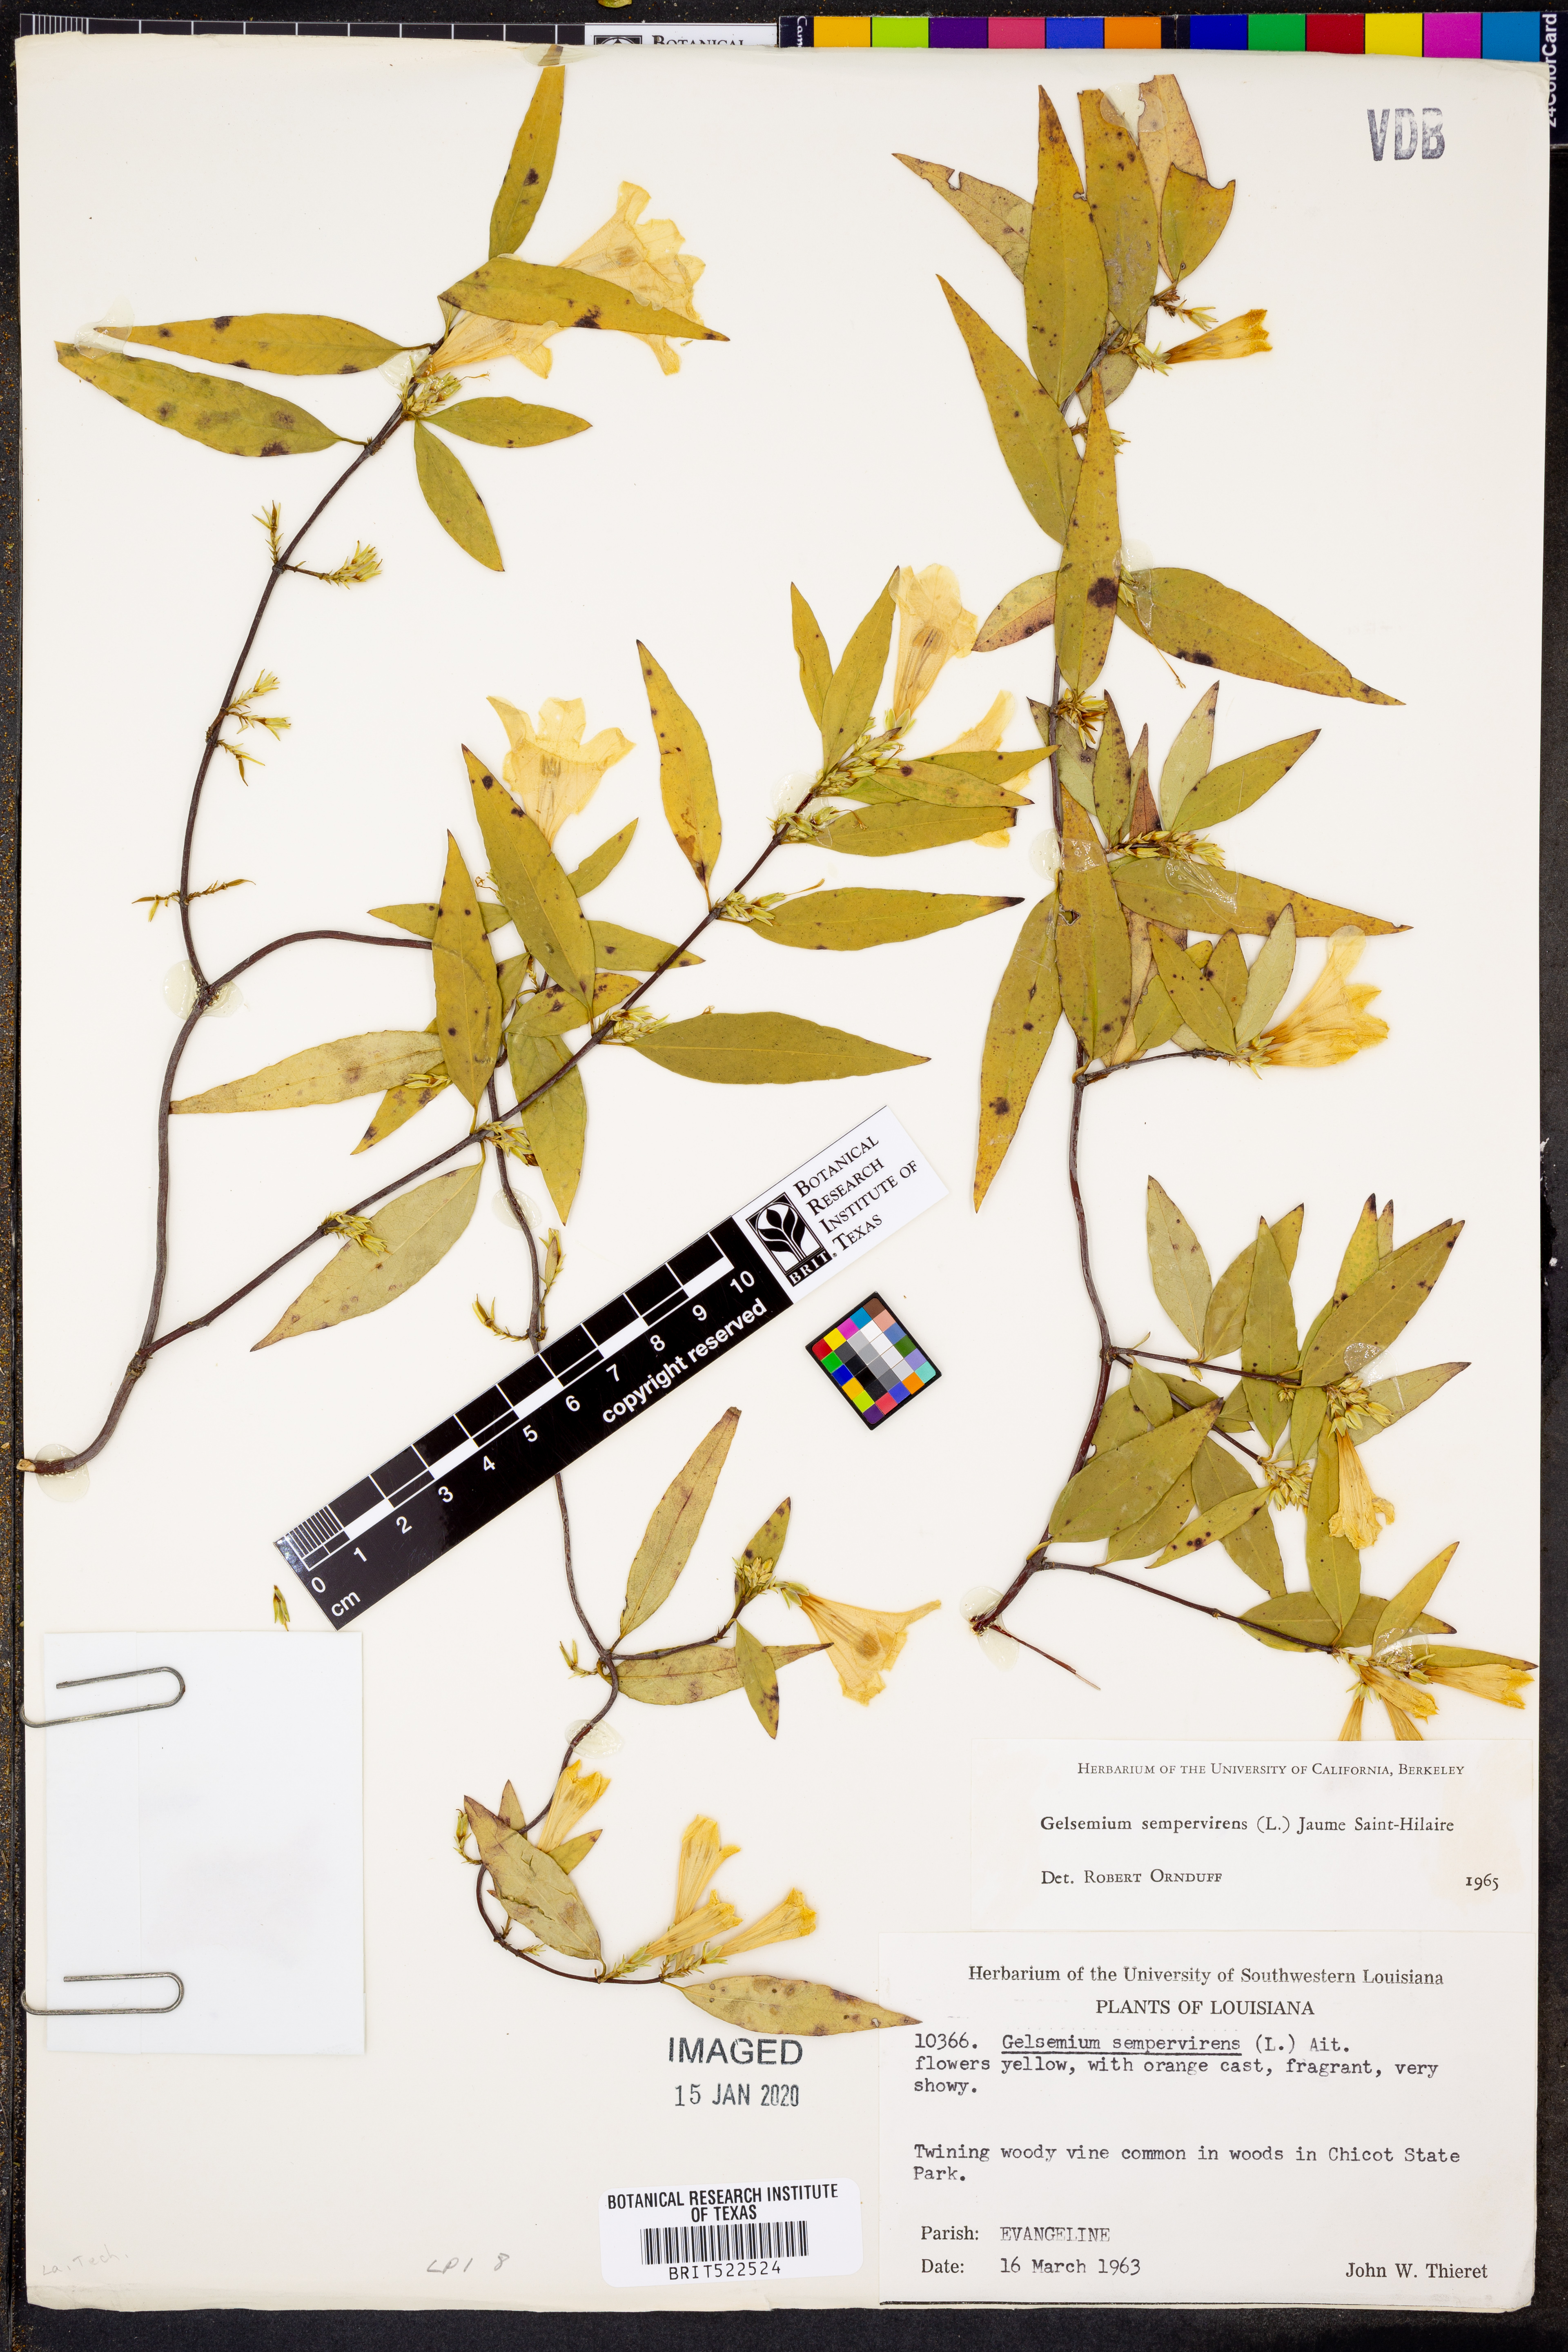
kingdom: Plantae
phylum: Tracheophyta
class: Magnoliopsida
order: Gentianales
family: Gelsemiaceae
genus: Gelsemium
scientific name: Gelsemium sempervirens
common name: Carolina-jasmine
